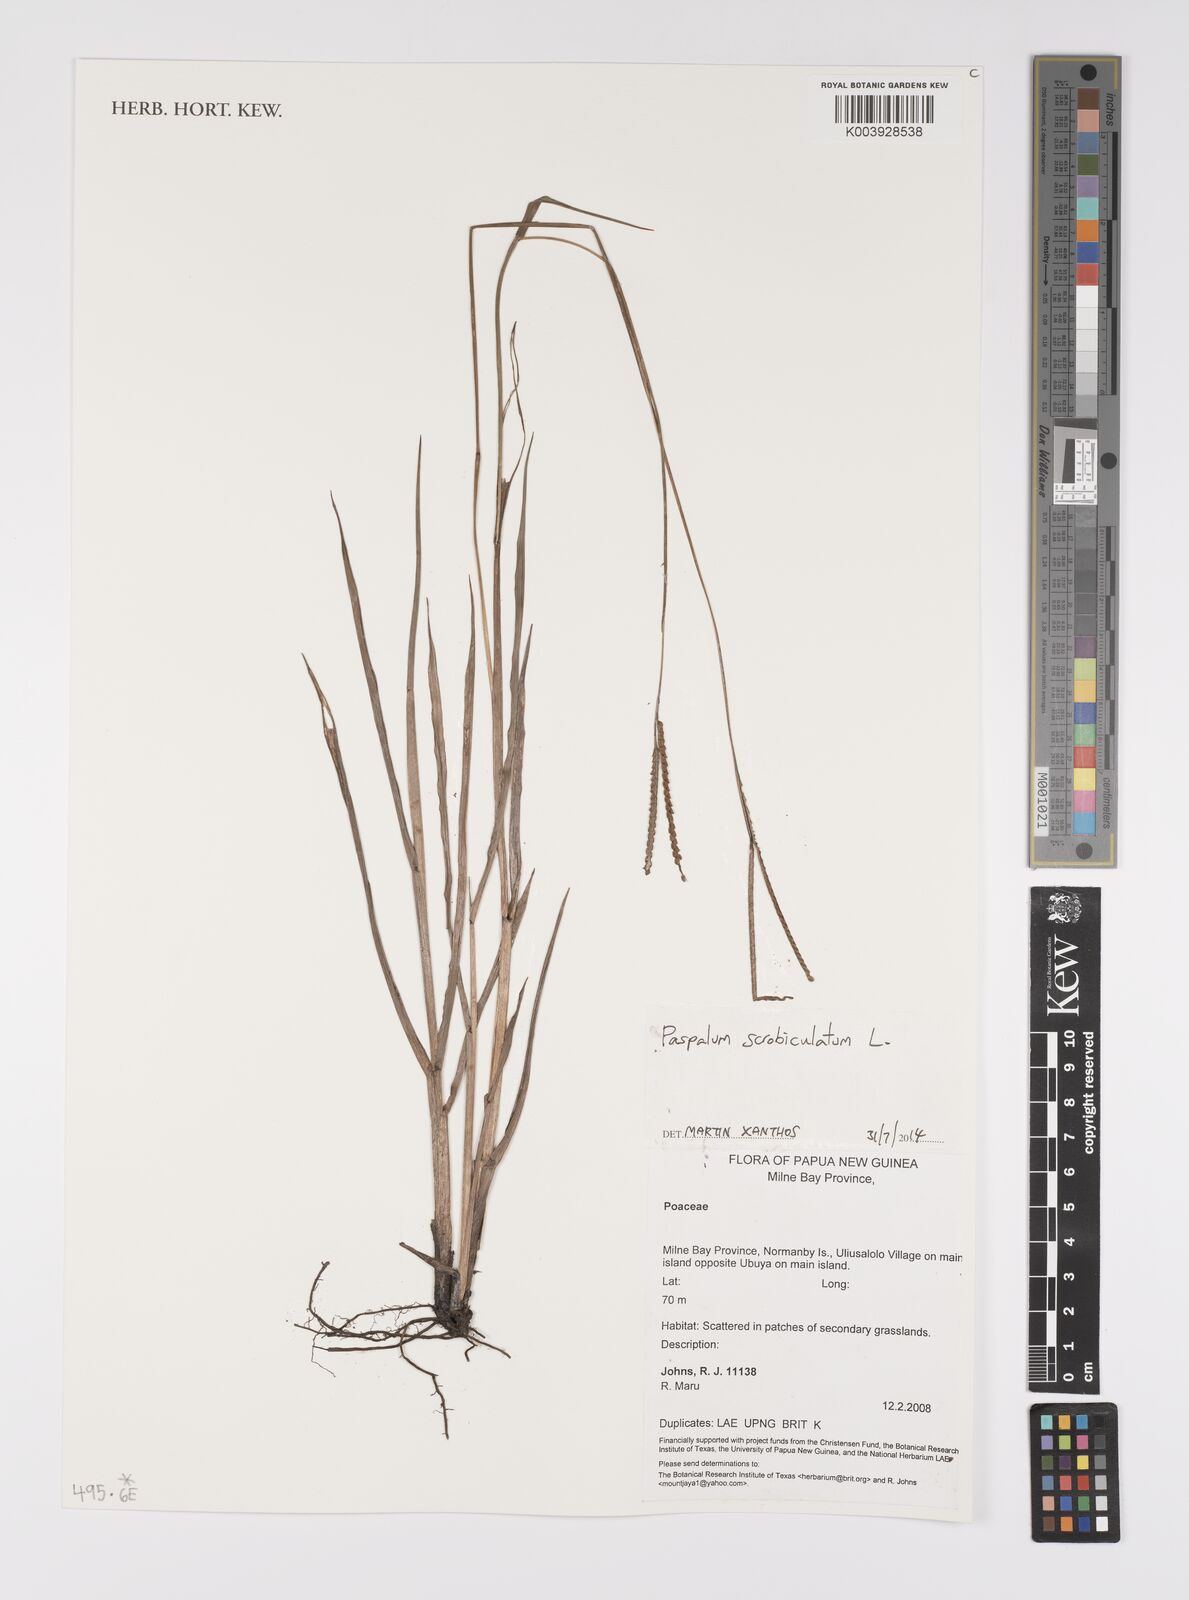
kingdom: Plantae
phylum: Tracheophyta
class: Liliopsida
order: Poales
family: Poaceae
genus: Paspalum
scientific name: Paspalum scrobiculatum
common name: Kodo millet
